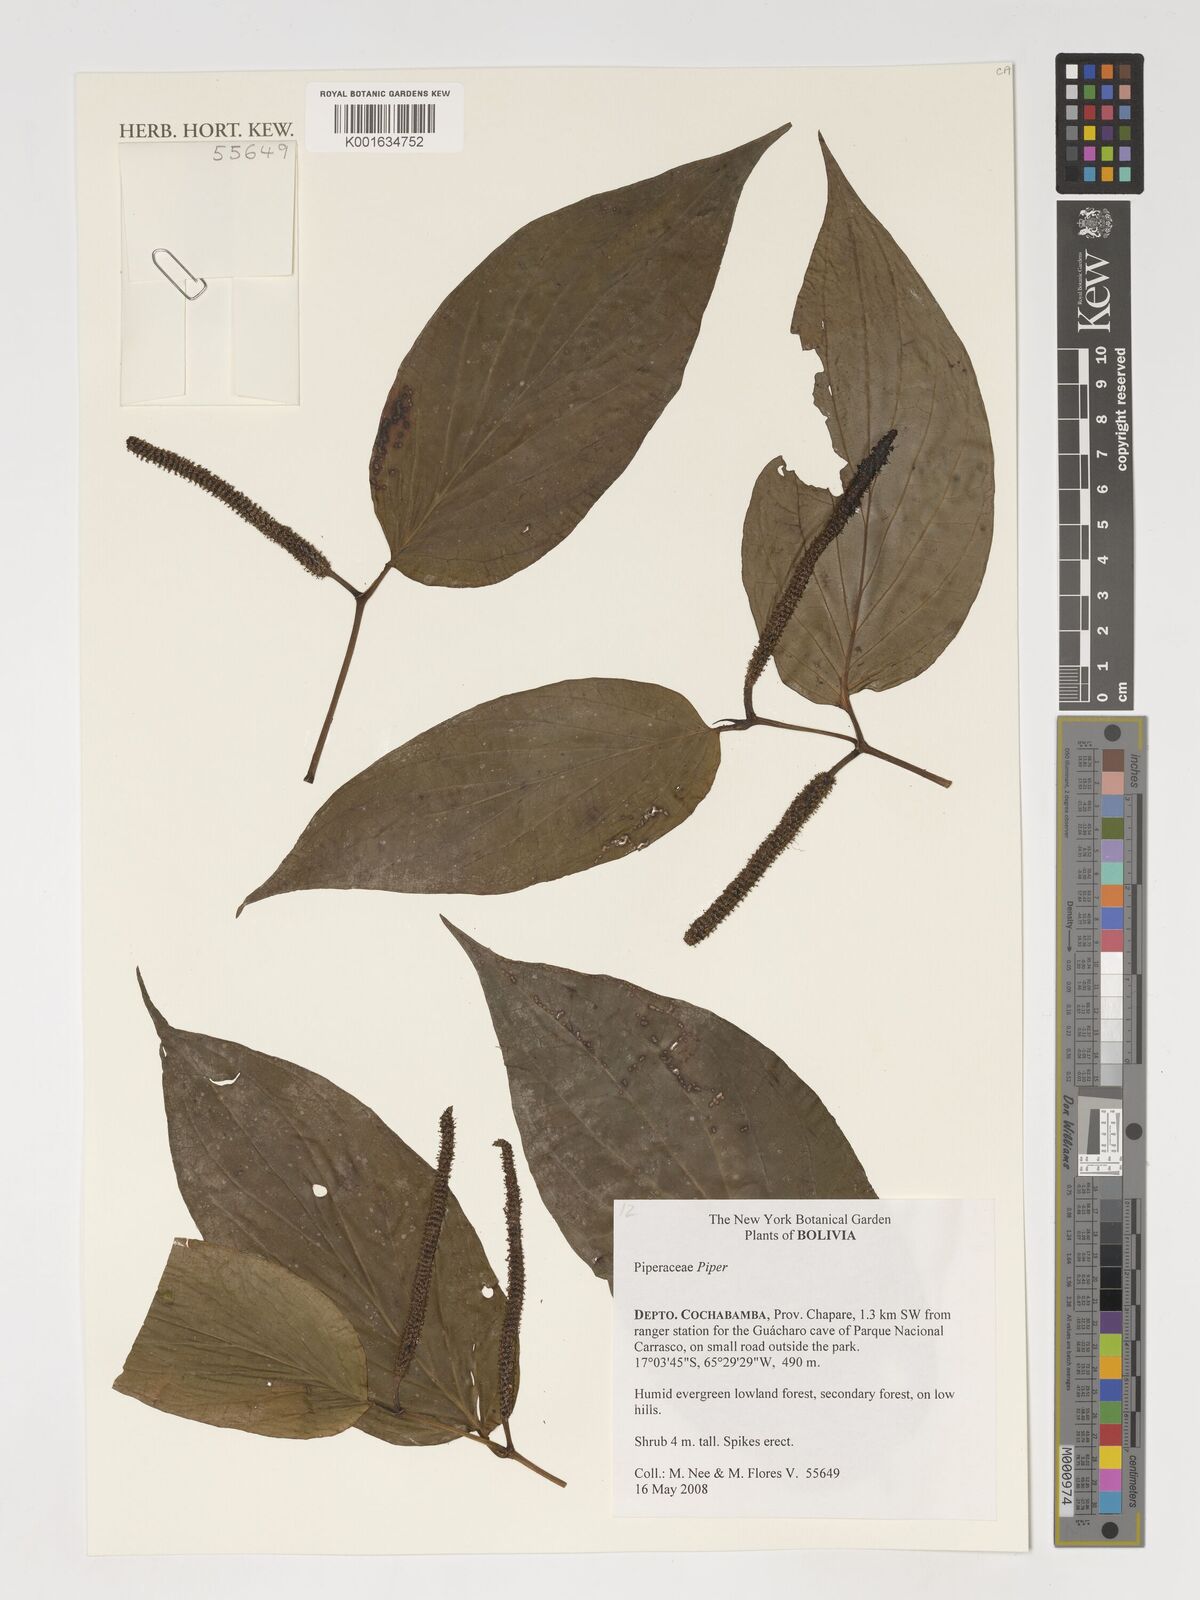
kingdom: Plantae
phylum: Tracheophyta
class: Magnoliopsida
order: Piperales
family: Piperaceae
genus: Piper
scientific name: Piper
